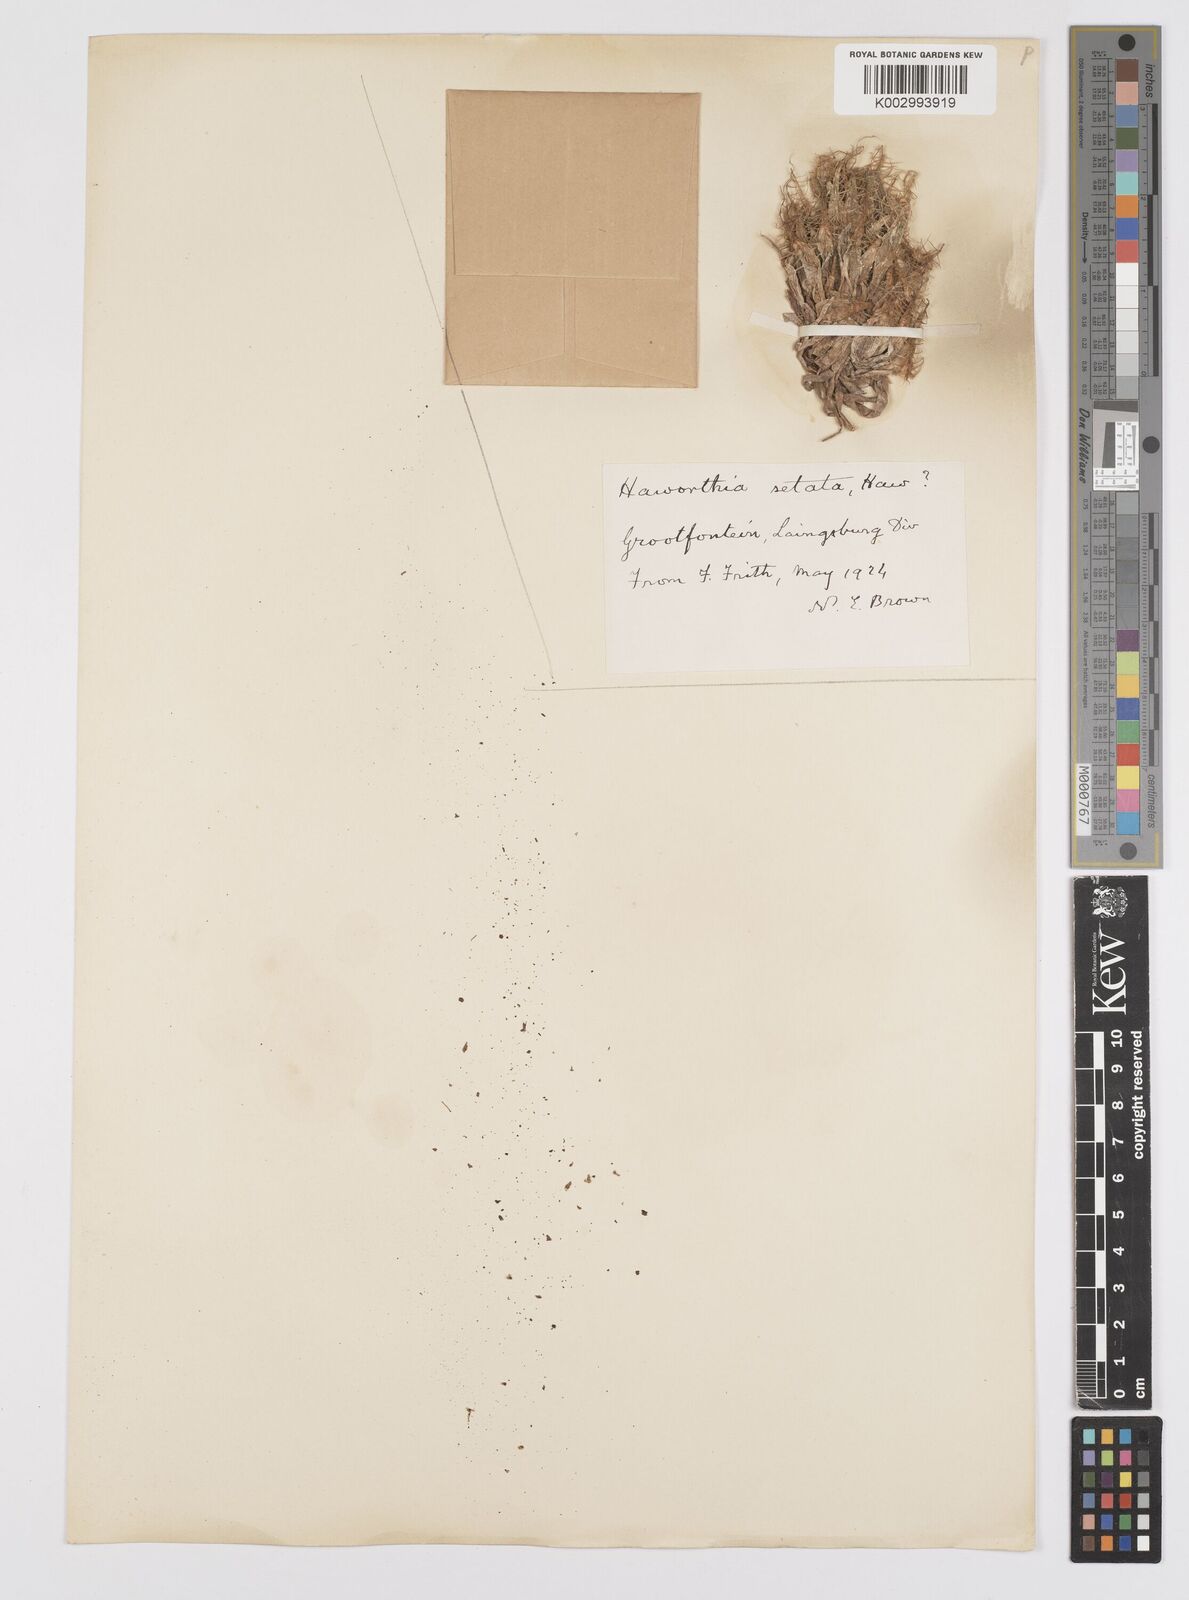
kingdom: Plantae
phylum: Tracheophyta
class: Liliopsida
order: Asparagales
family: Asphodelaceae
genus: Haworthia
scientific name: Haworthia arachnoidea
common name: Cobweb-aloe
